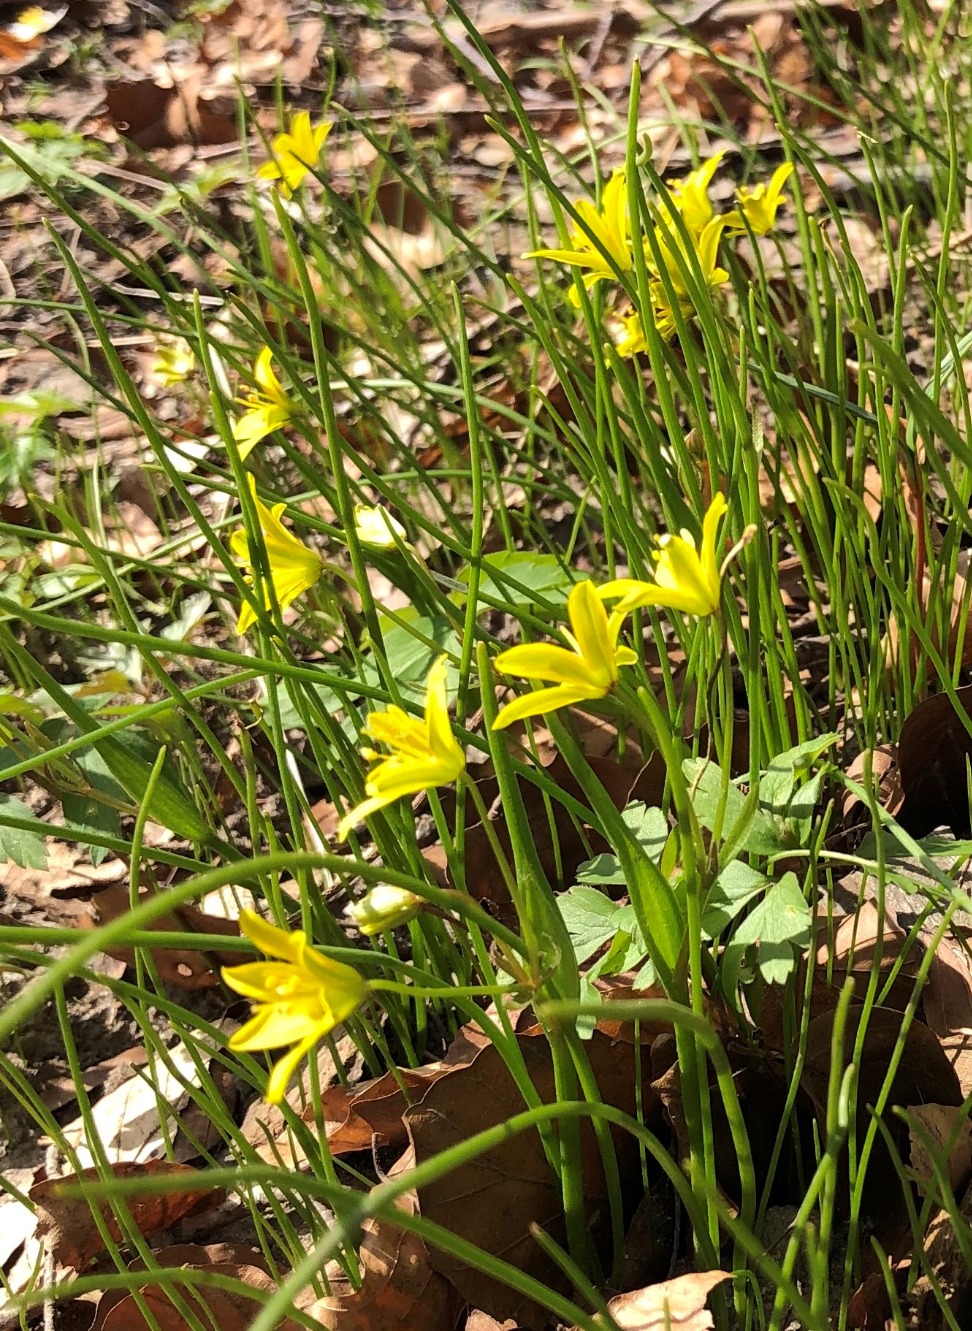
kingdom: Plantae
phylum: Tracheophyta
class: Liliopsida
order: Liliales
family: Liliaceae
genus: Gagea
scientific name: Gagea spathacea
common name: Hylster-guldstjerne
